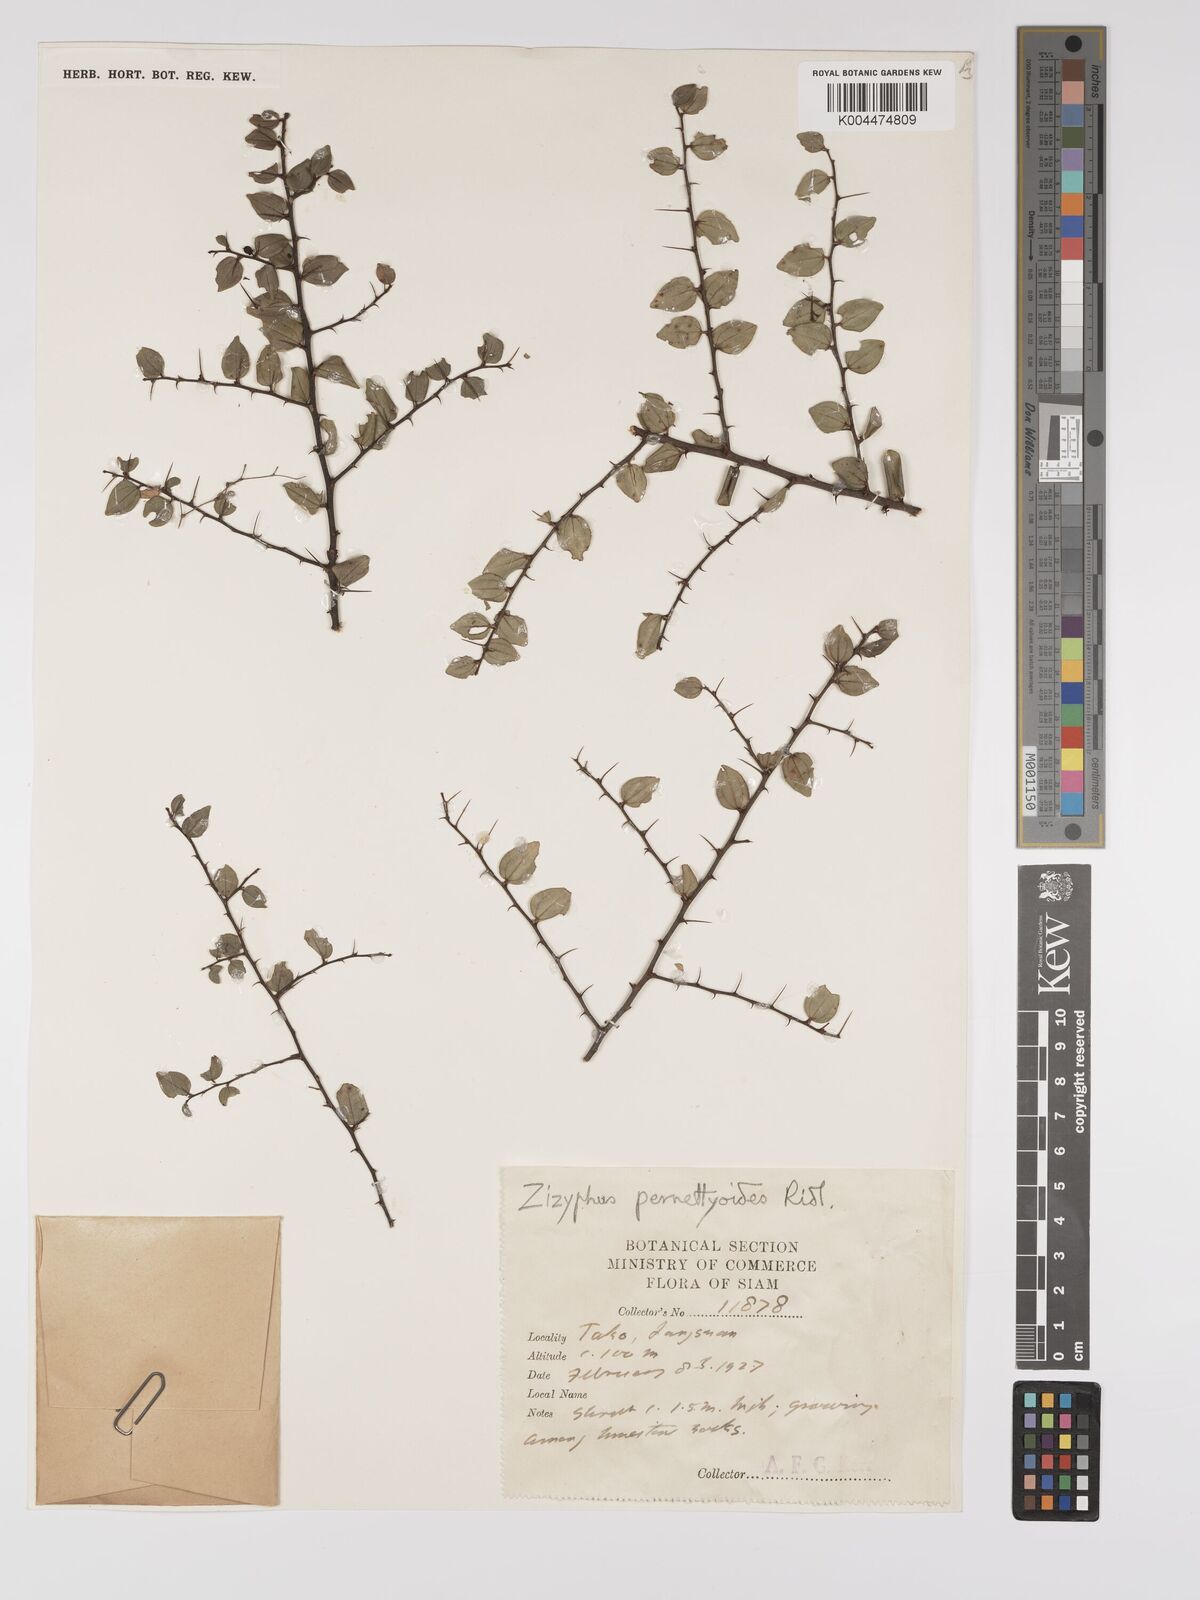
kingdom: Plantae
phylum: Tracheophyta
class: Magnoliopsida
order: Rosales
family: Rhamnaceae
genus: Ziziphus
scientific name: Ziziphus pernettyoides
